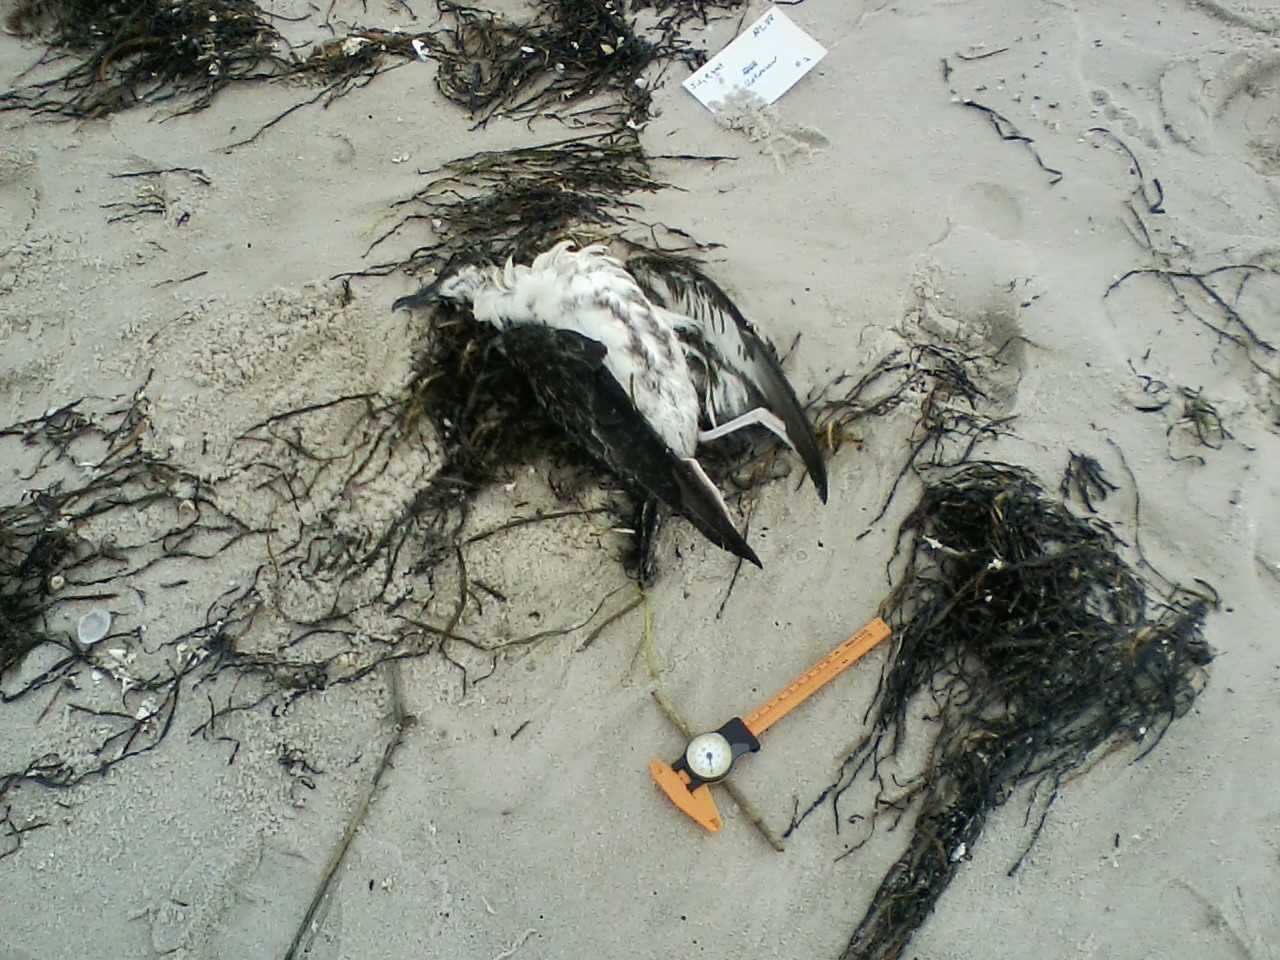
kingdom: Animalia
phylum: Chordata
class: Aves
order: Charadriiformes
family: Laridae
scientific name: Laridae
